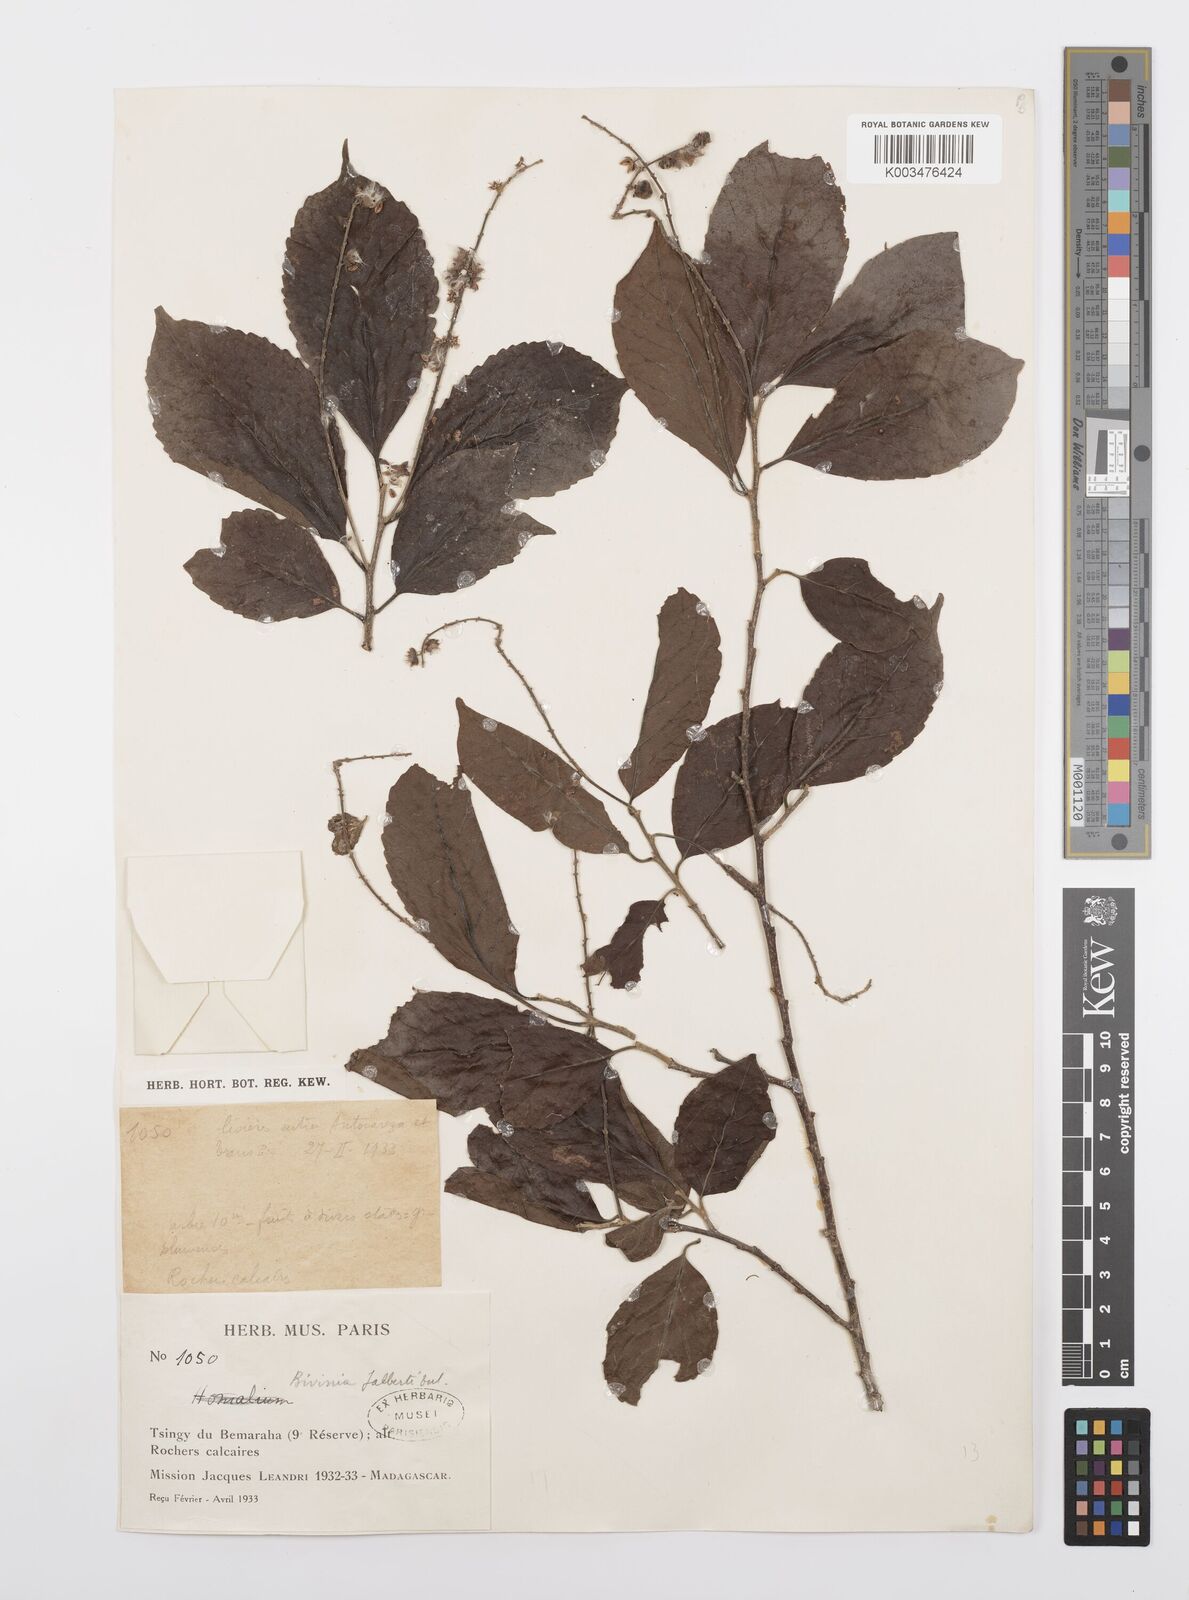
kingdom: Plantae
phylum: Tracheophyta
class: Magnoliopsida
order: Malpighiales
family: Salicaceae
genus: Bivinia
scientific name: Bivinia jalbertii
